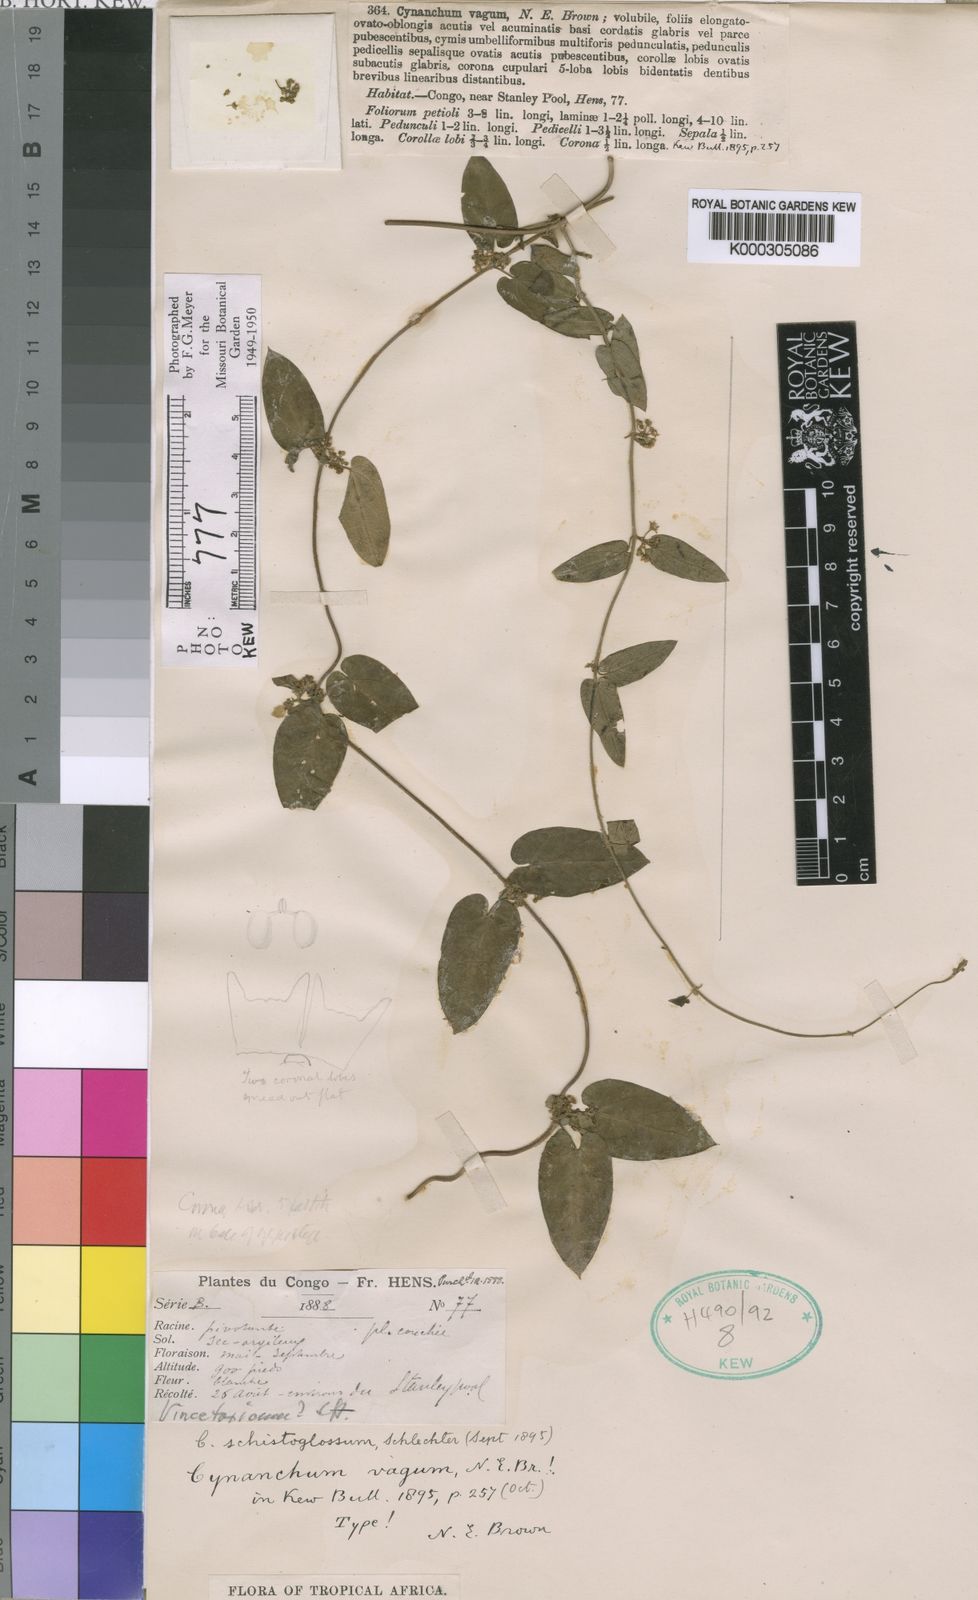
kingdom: Plantae
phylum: Tracheophyta
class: Magnoliopsida
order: Gentianales
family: Apocynaceae
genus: Cynanchum
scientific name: Cynanchum schistoglossum
